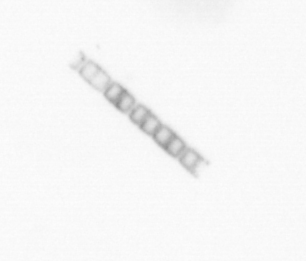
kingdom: Chromista
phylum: Ochrophyta
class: Bacillariophyceae
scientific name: Bacillariophyceae
